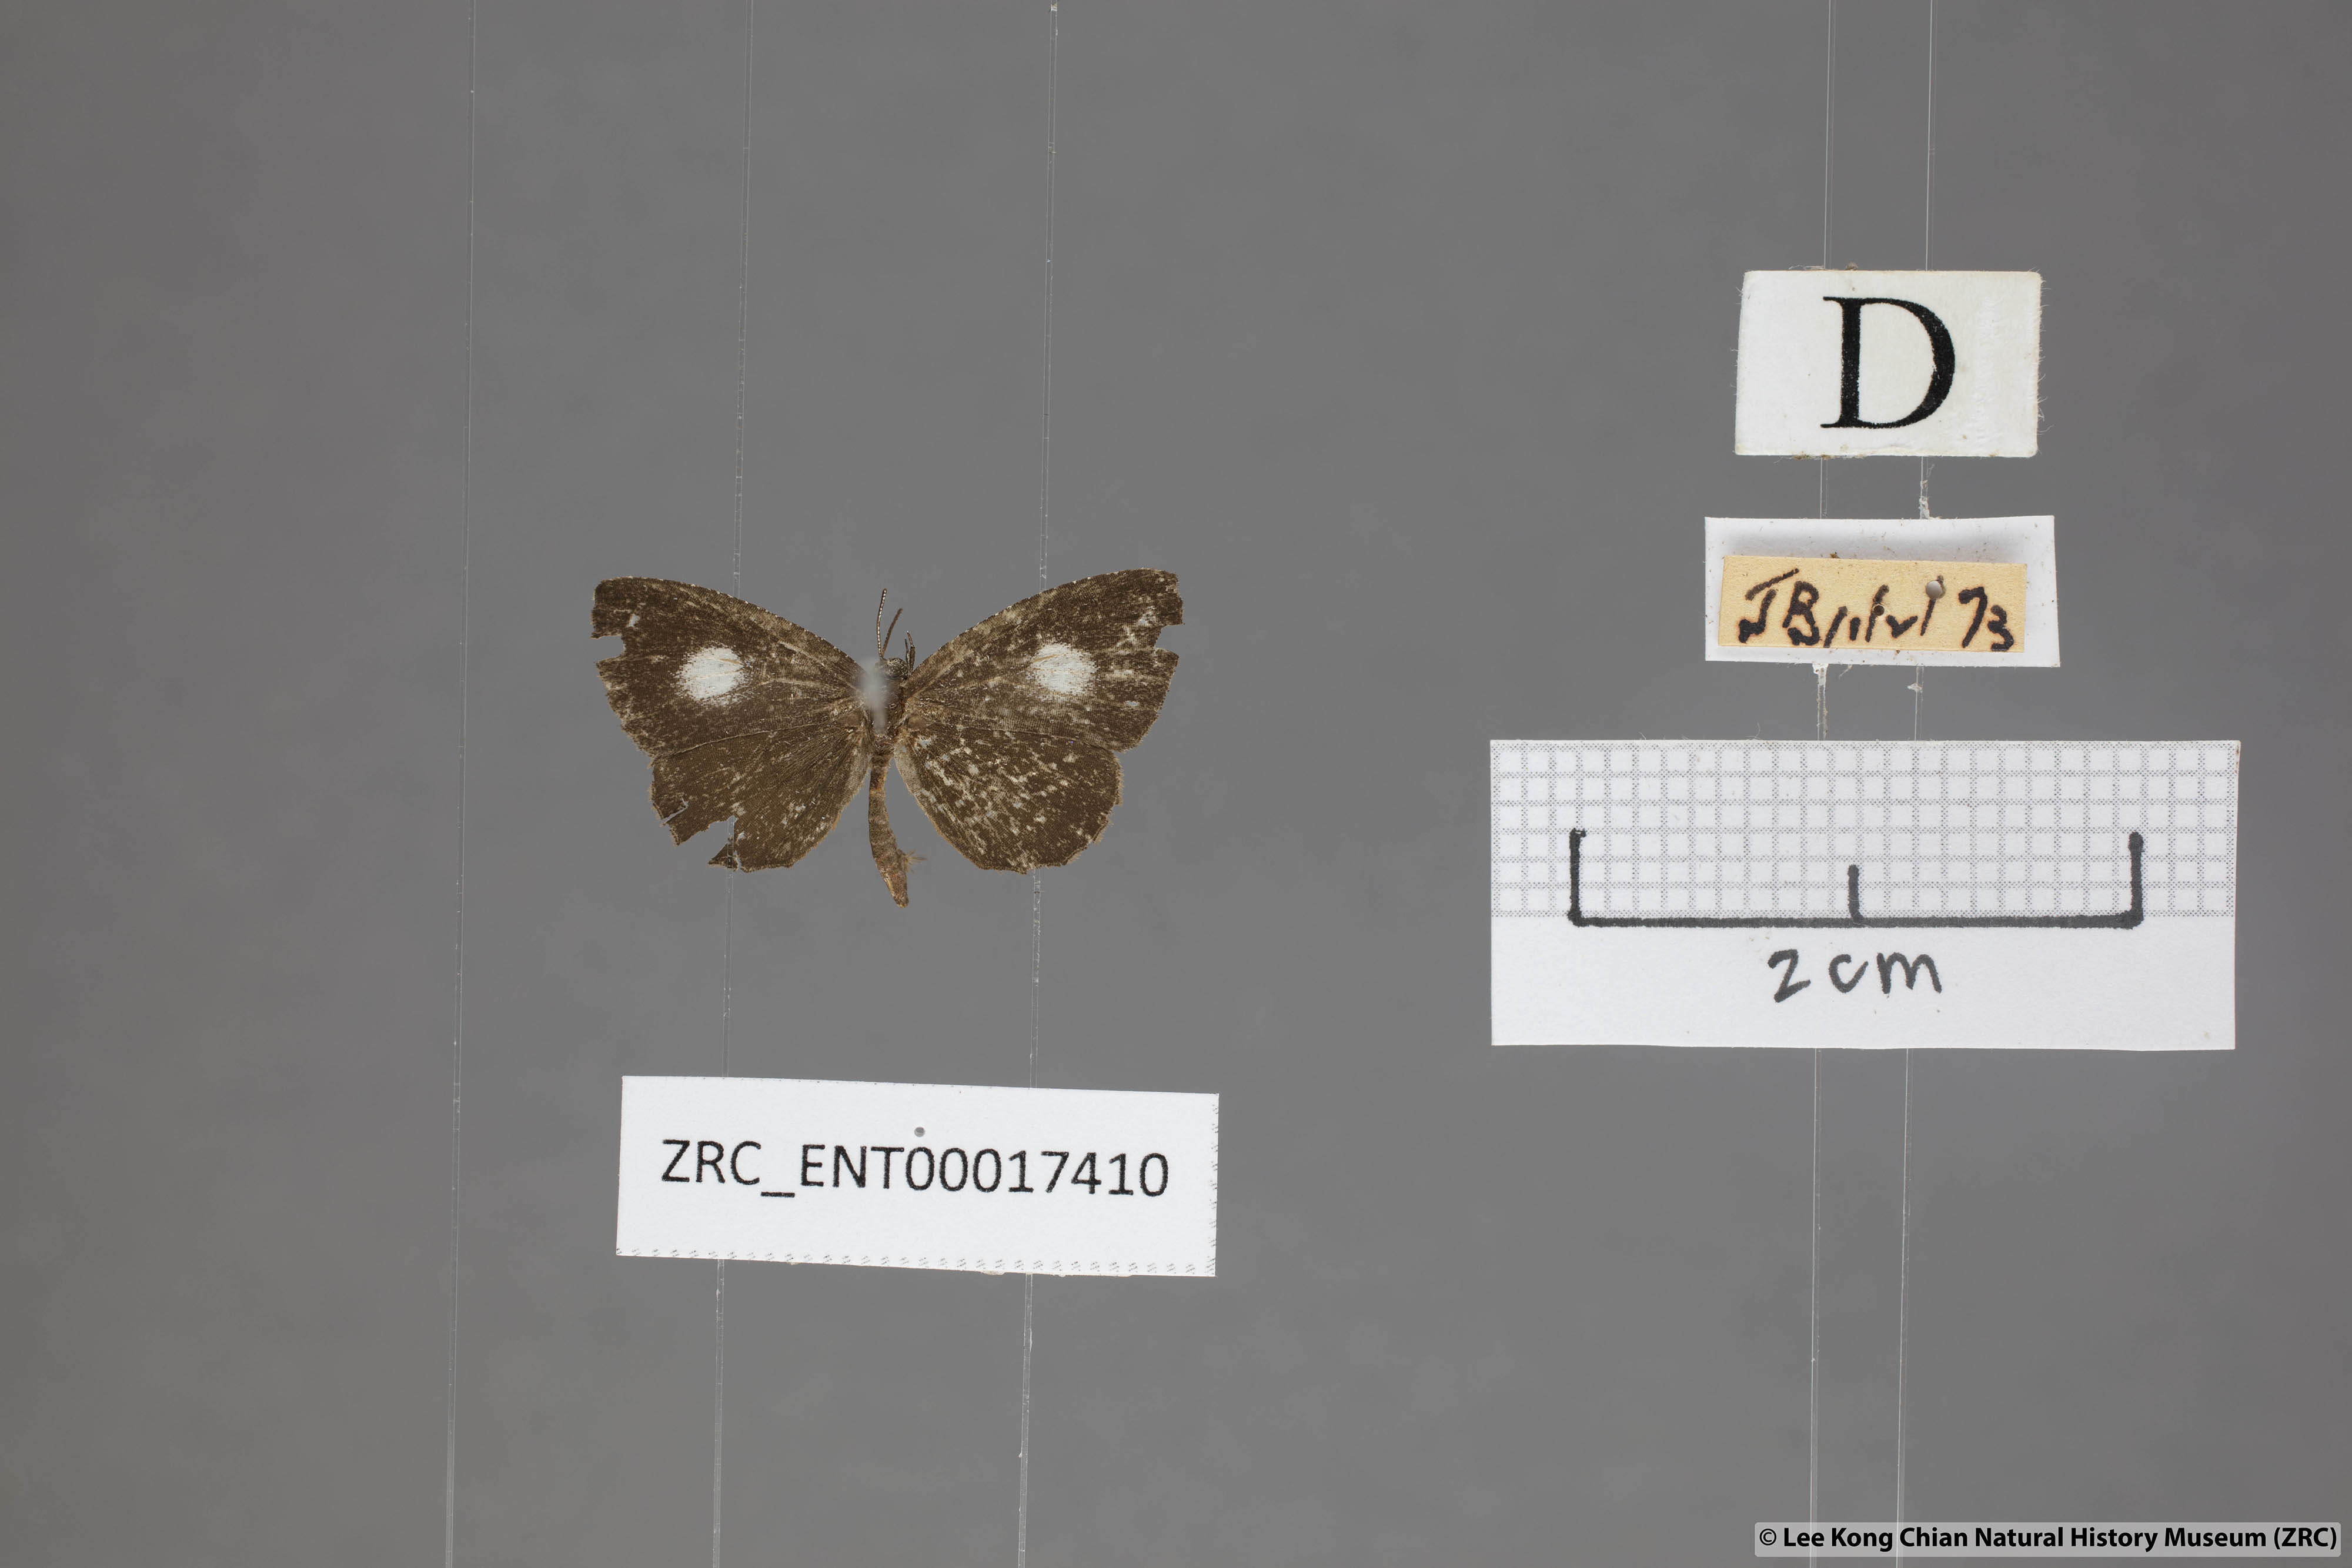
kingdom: Animalia
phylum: Arthropoda
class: Insecta
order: Lepidoptera
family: Lycaenidae
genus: Logania
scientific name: Logania distanti
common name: Dark mottle
